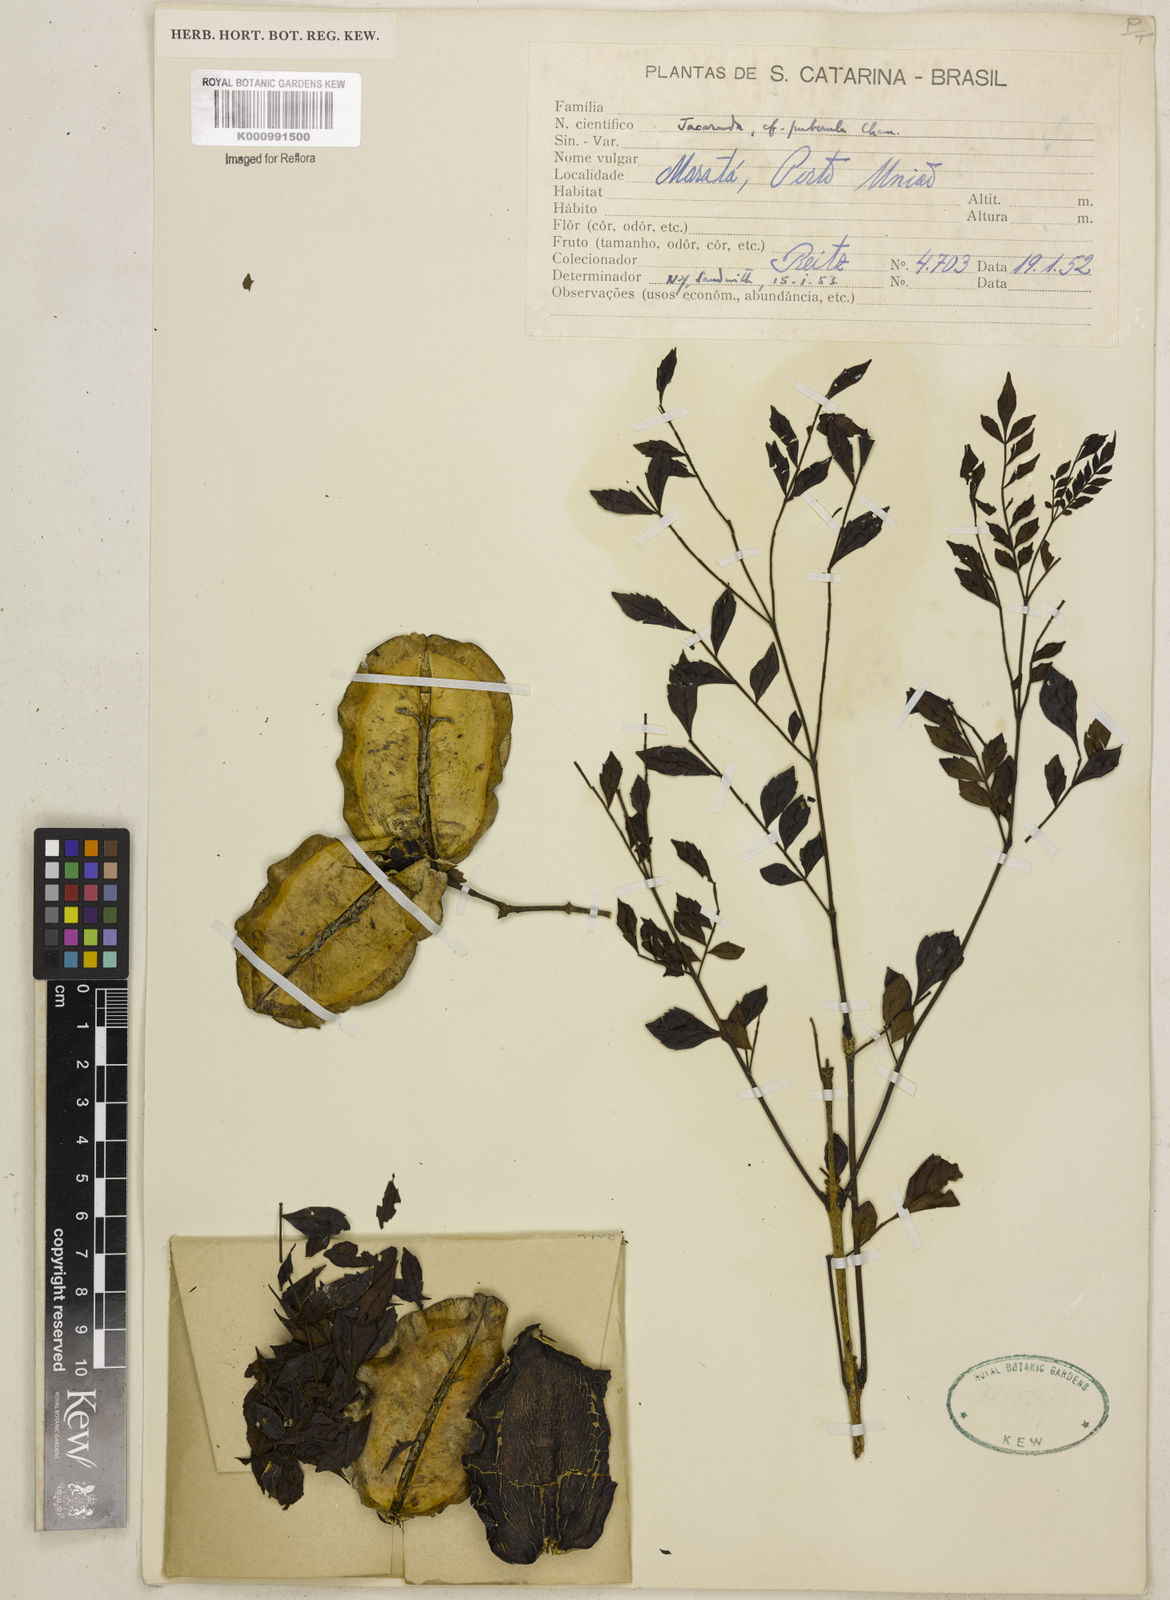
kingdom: Plantae
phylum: Tracheophyta
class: Magnoliopsida
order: Lamiales
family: Bignoniaceae
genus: Jacaranda
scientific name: Jacaranda puberula
